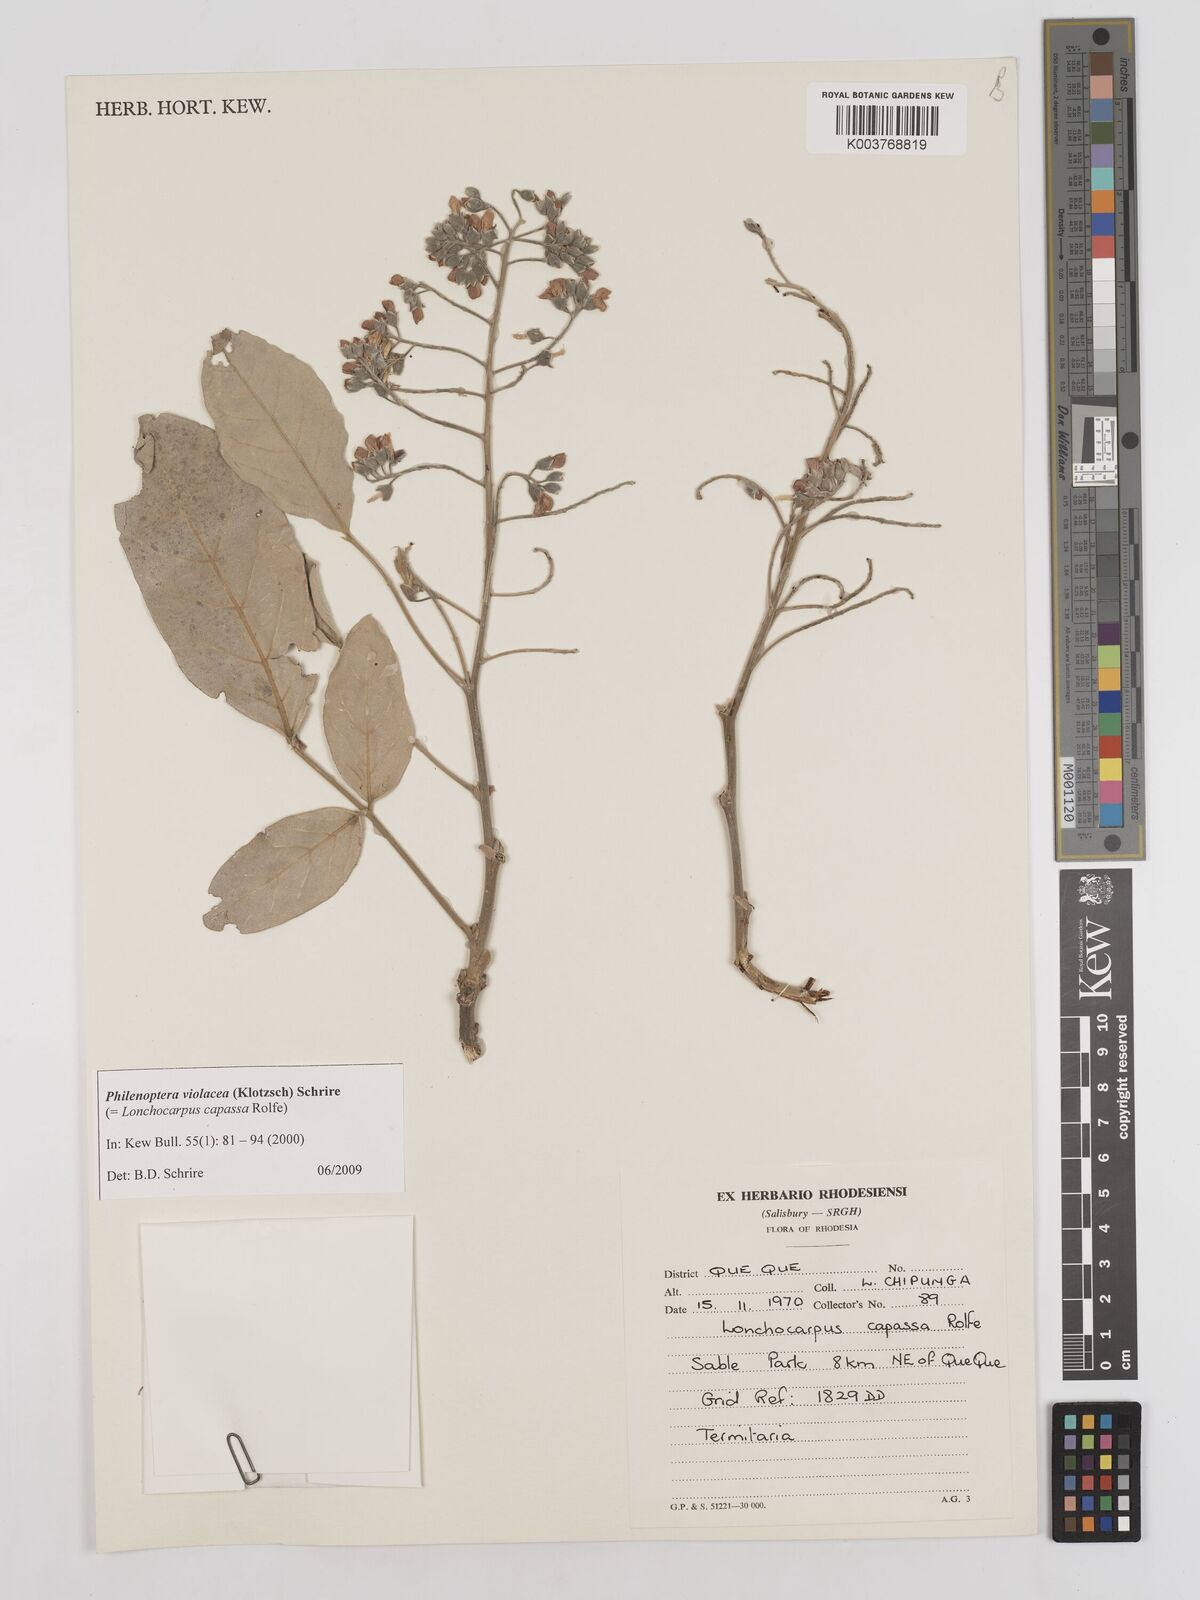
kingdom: Plantae
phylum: Tracheophyta
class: Magnoliopsida
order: Fabales
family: Fabaceae
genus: Philenoptera
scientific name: Philenoptera violacea
